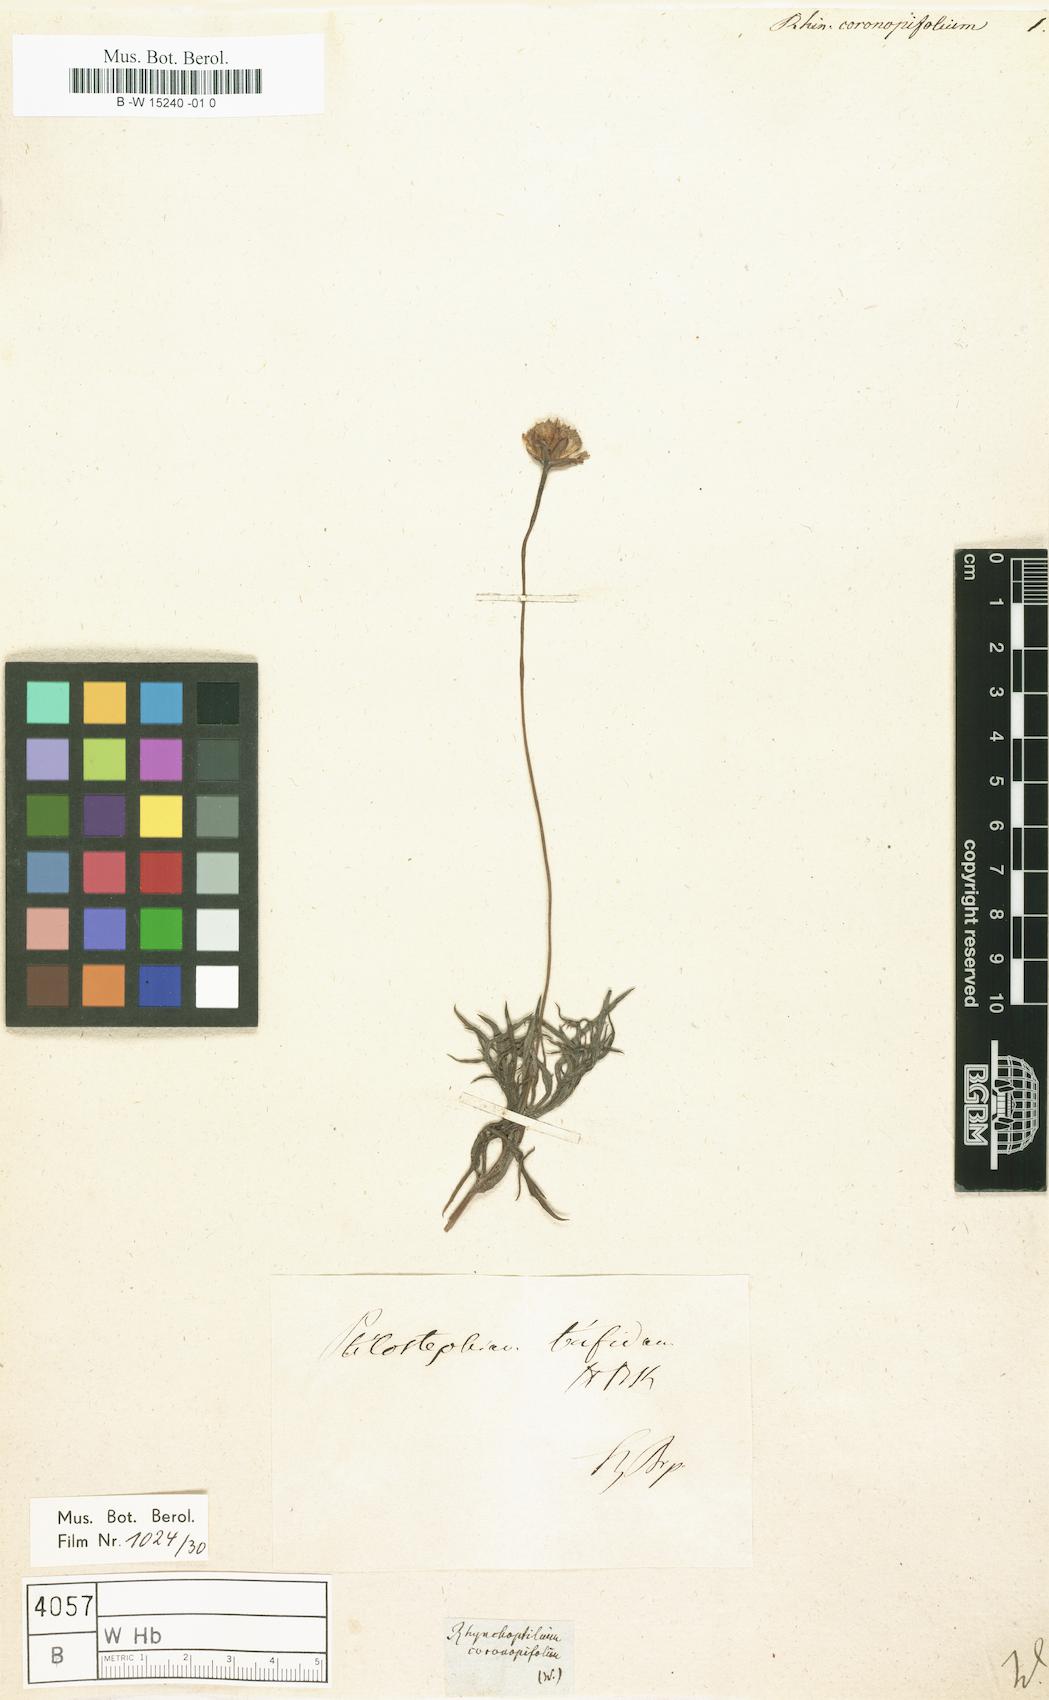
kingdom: Plantae
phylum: Tracheophyta
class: Magnoliopsida
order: Asterales
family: Asteraceae
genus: Rhynchopsidium
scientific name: Rhynchopsidium
